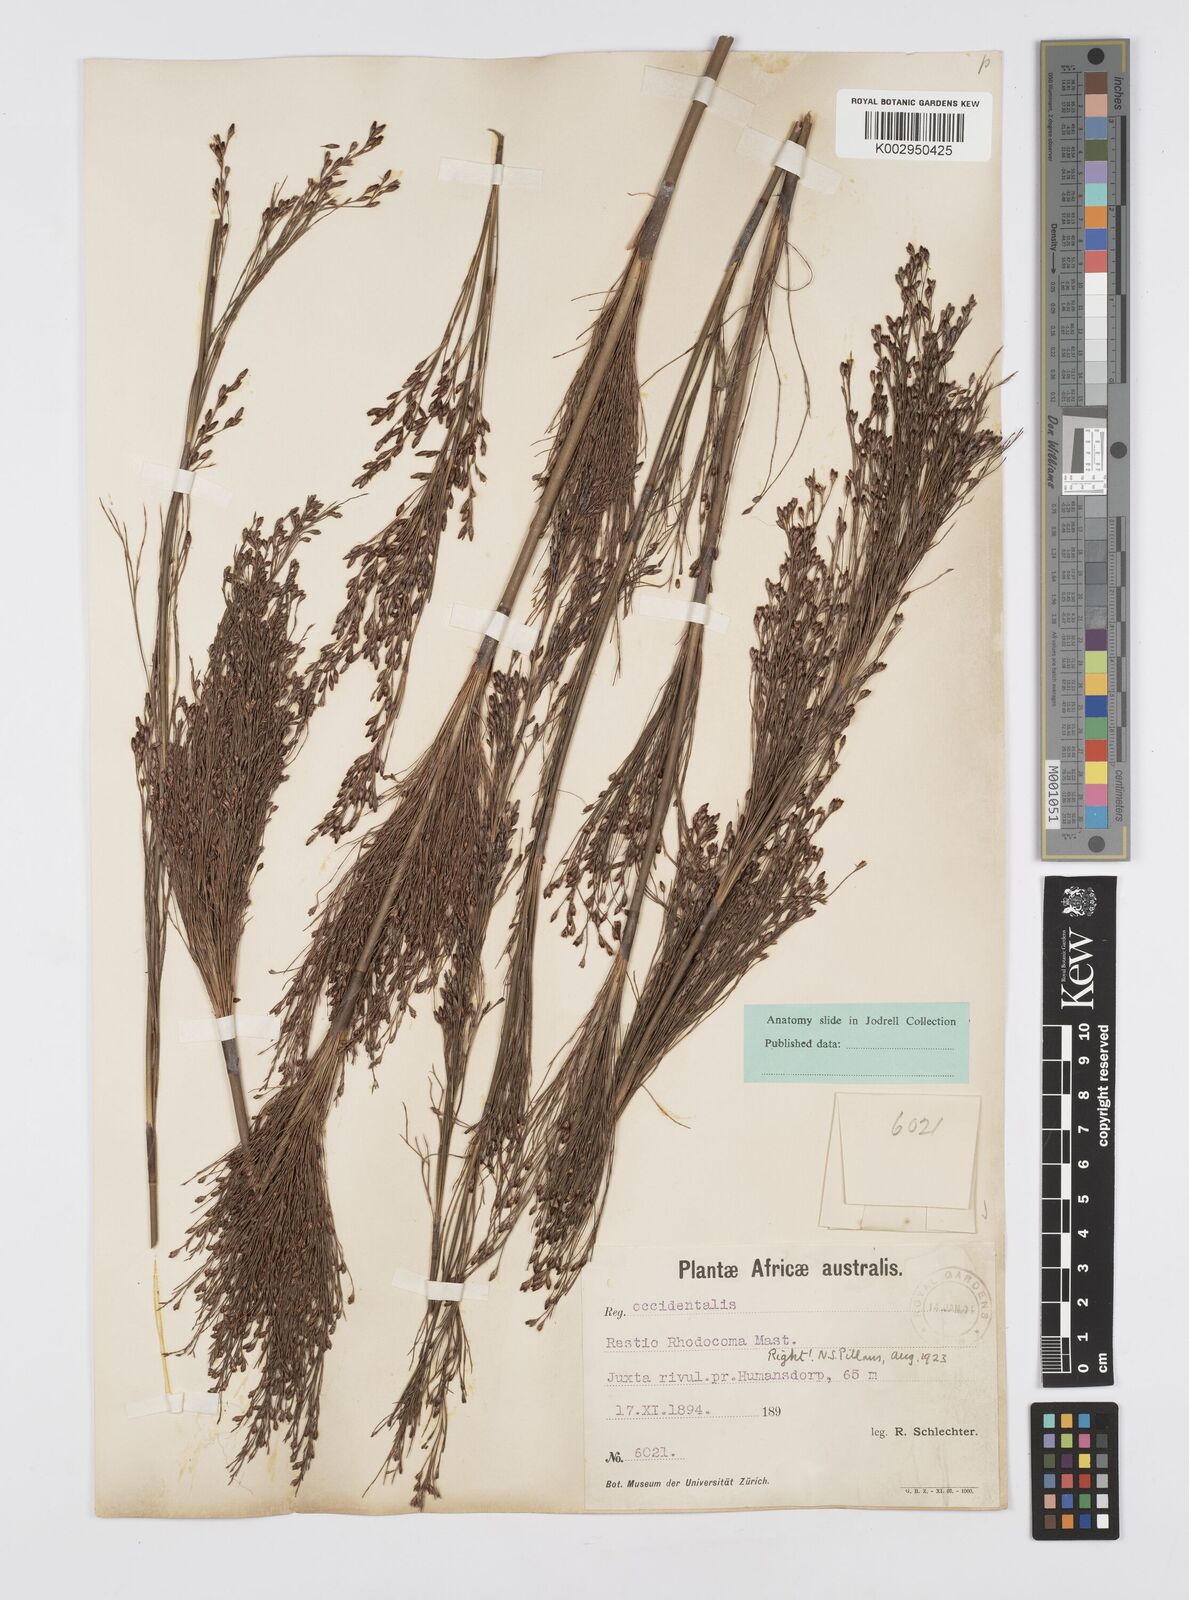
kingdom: Plantae
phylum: Tracheophyta
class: Liliopsida
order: Poales
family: Restionaceae
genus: Rhodocoma
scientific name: Rhodocoma capensis
